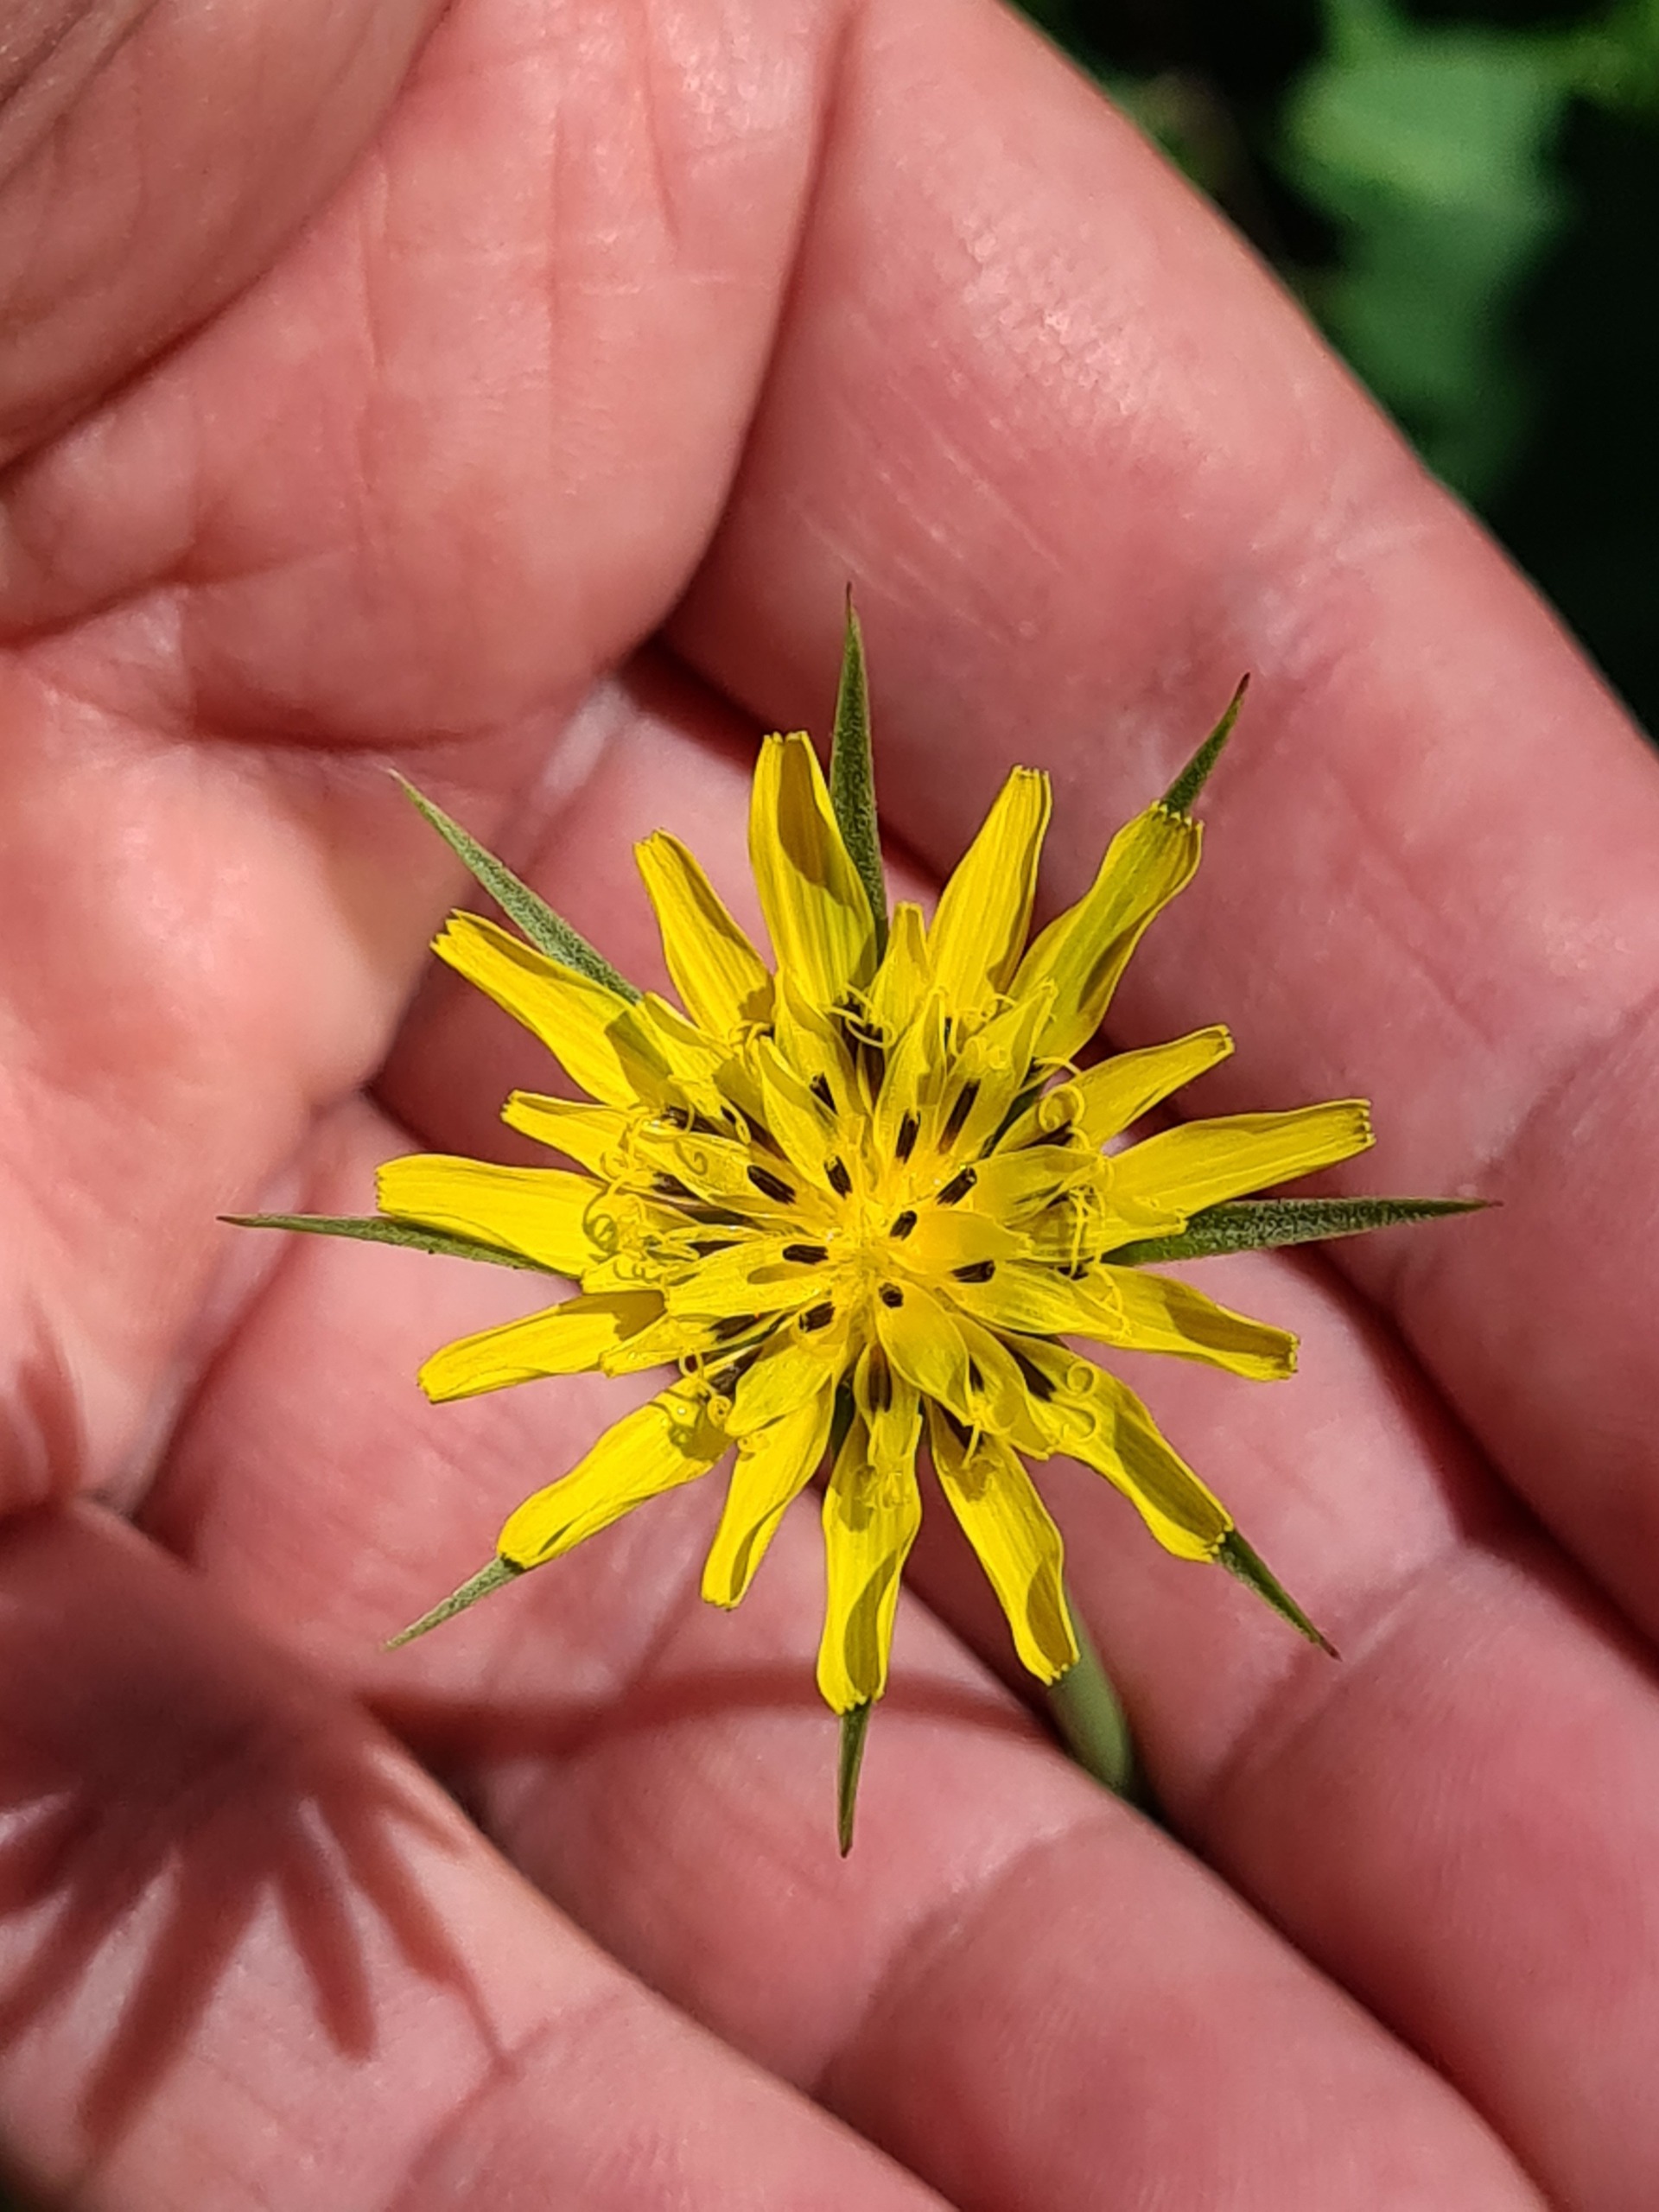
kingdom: Plantae
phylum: Tracheophyta
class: Magnoliopsida
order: Asterales
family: Asteraceae
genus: Tragopogon
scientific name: Tragopogon minor
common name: Småkronet gedeskæg
